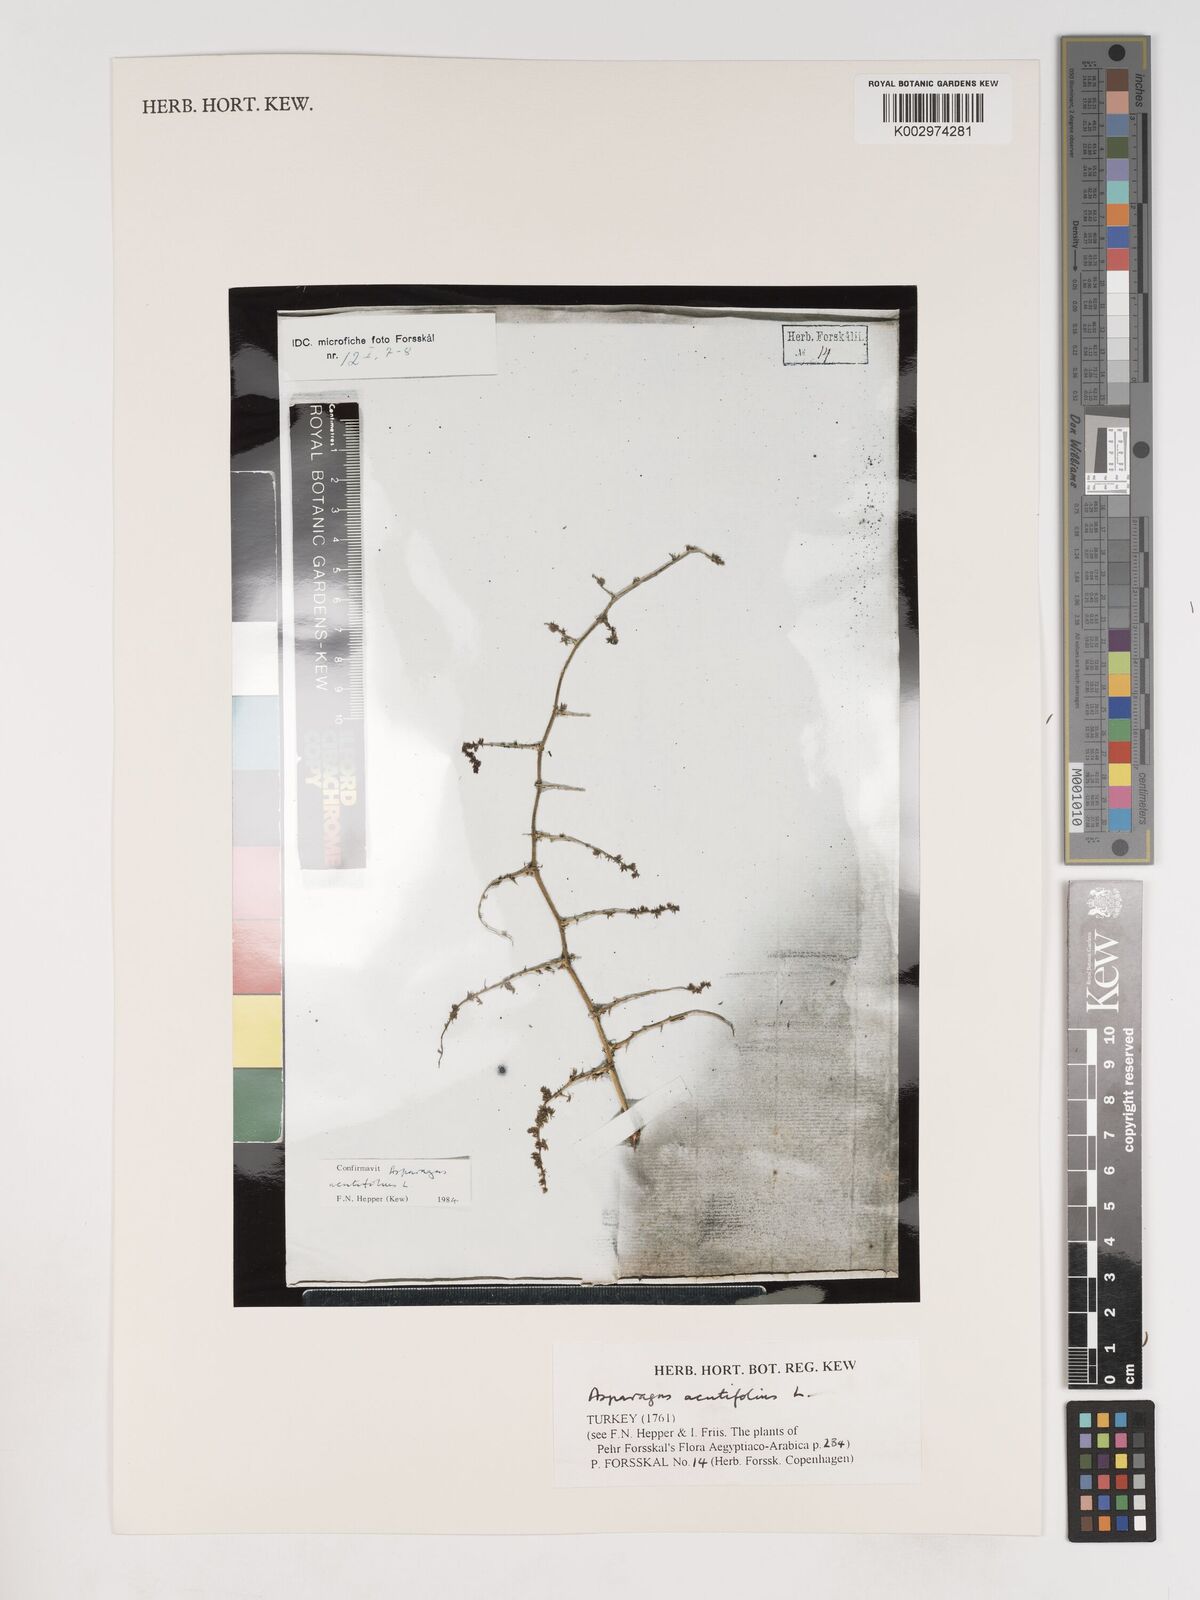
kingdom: Plantae
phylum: Tracheophyta
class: Liliopsida
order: Asparagales
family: Asparagaceae
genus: Asparagus
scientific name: Asparagus acutifolius
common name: Wild asparagus
